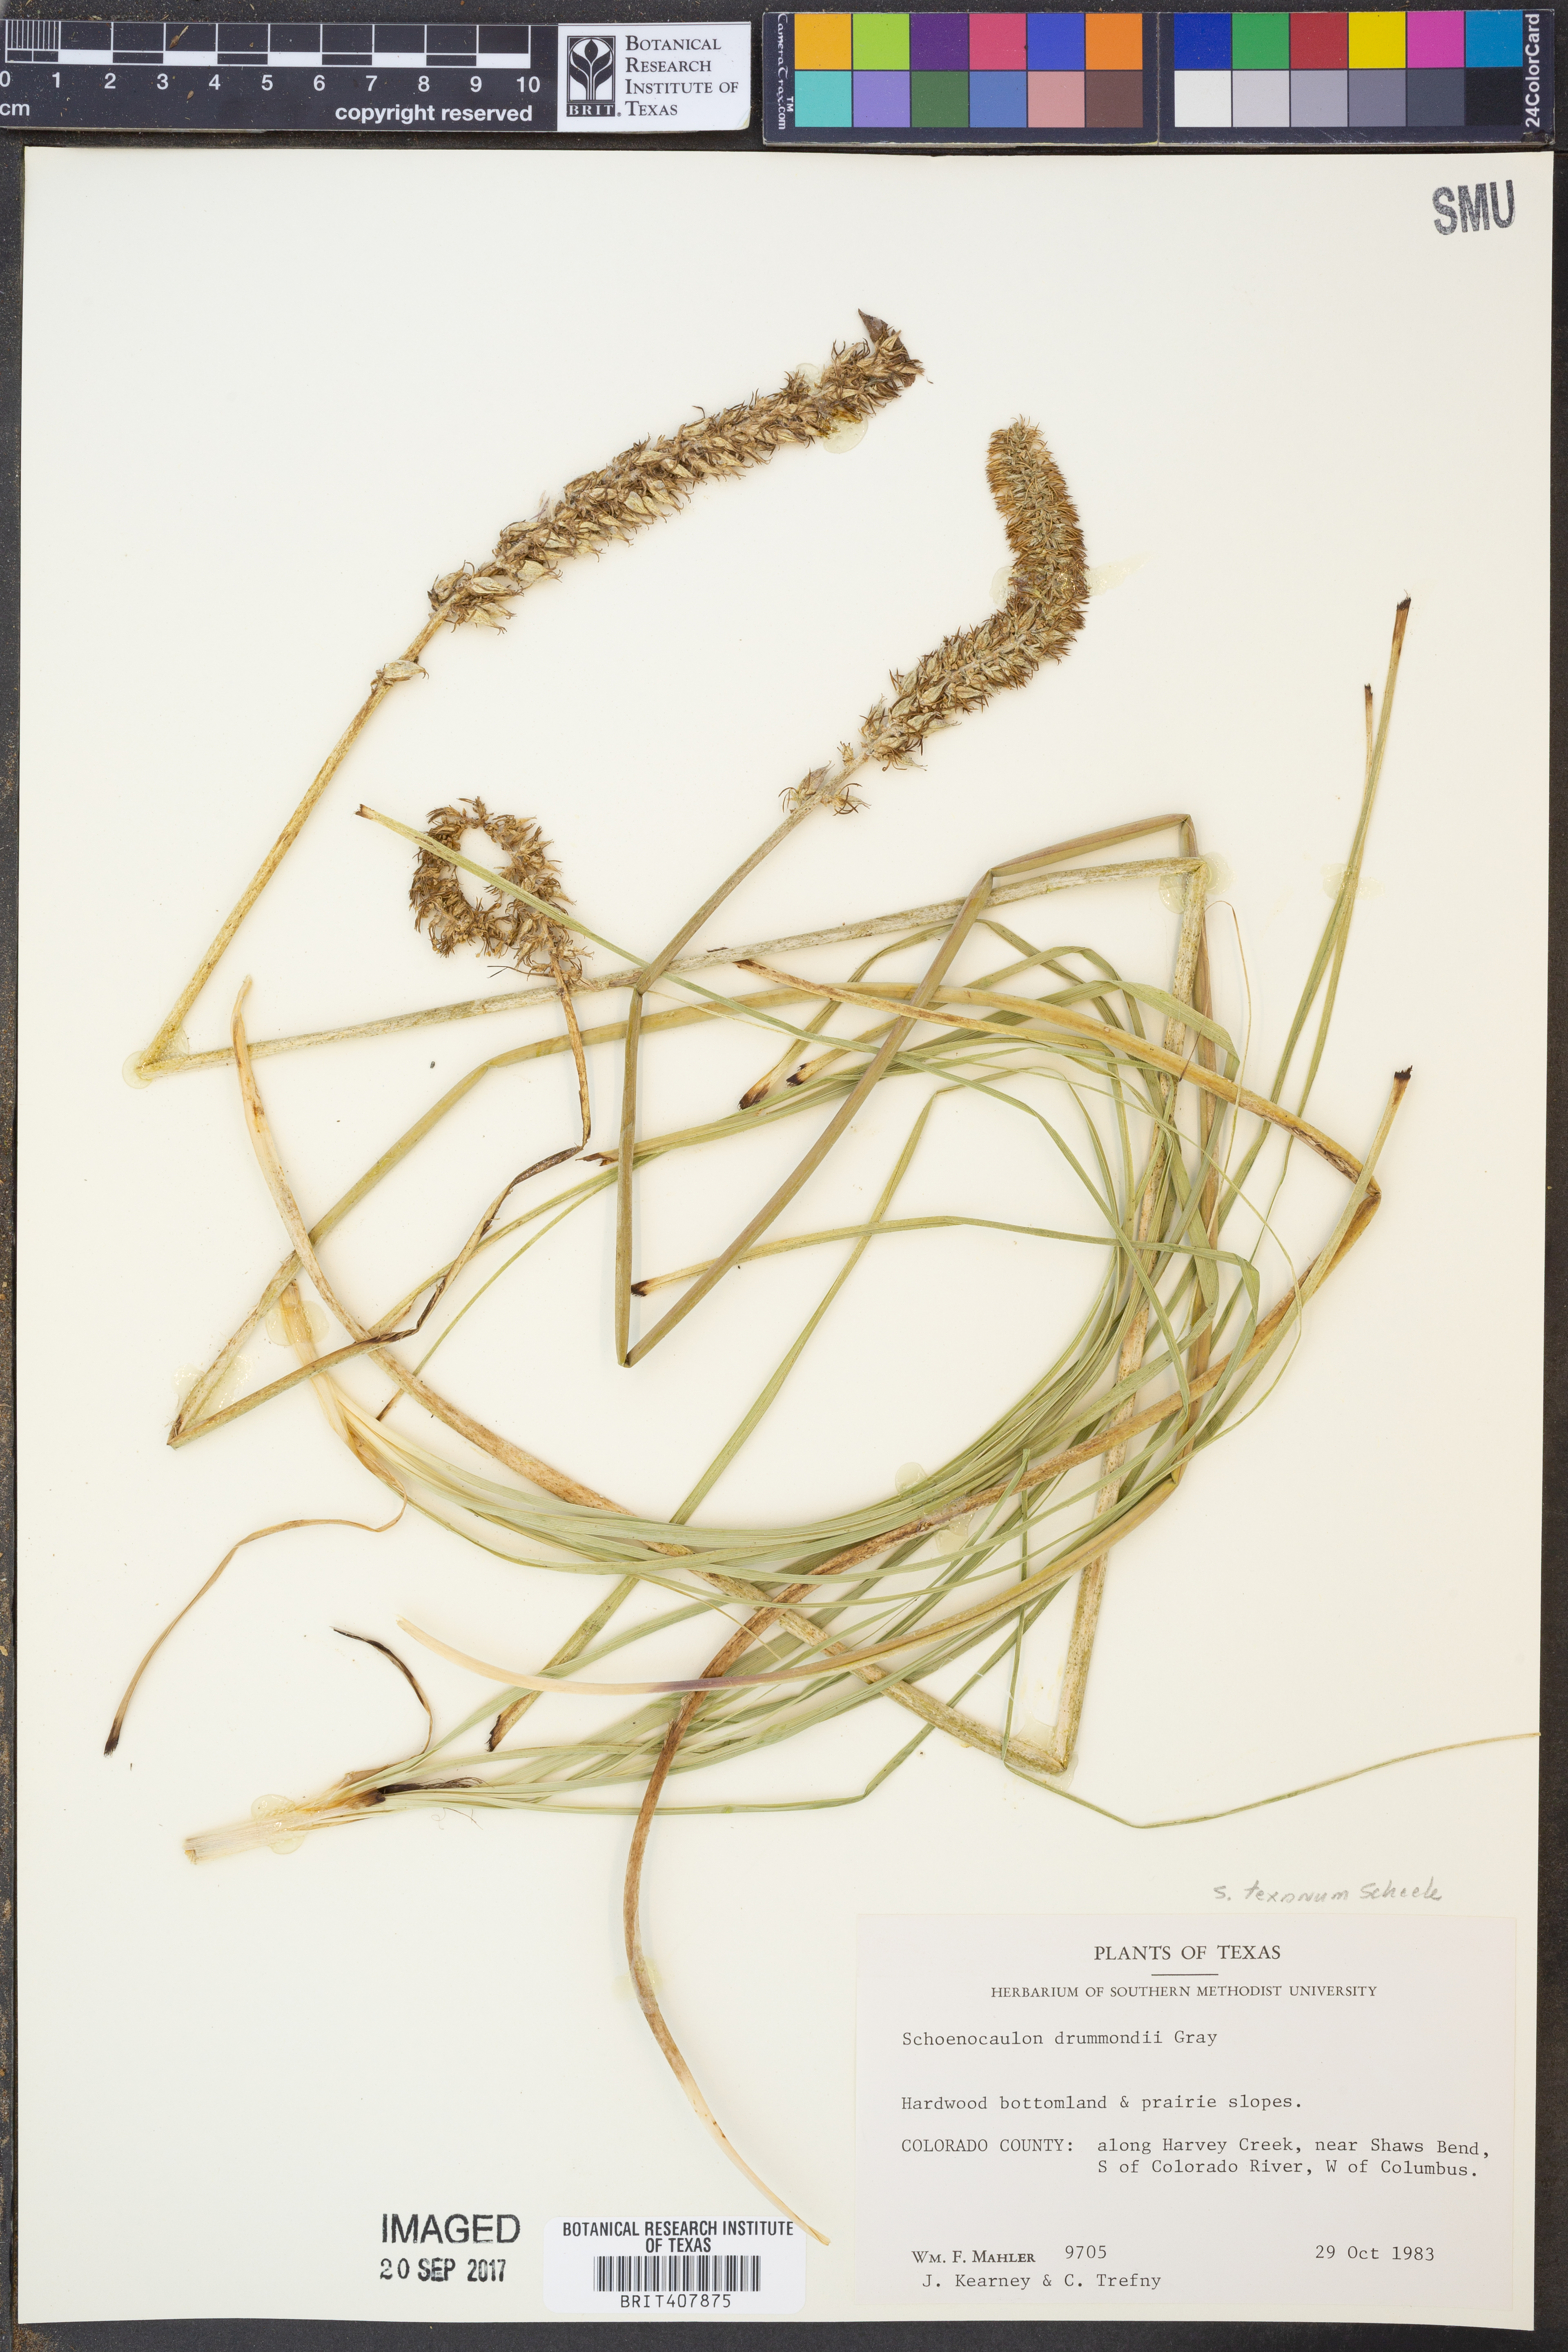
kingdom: Plantae
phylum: Tracheophyta
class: Liliopsida
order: Liliales
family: Melanthiaceae
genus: Schoenocaulon
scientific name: Schoenocaulon ghiesbreghtii
